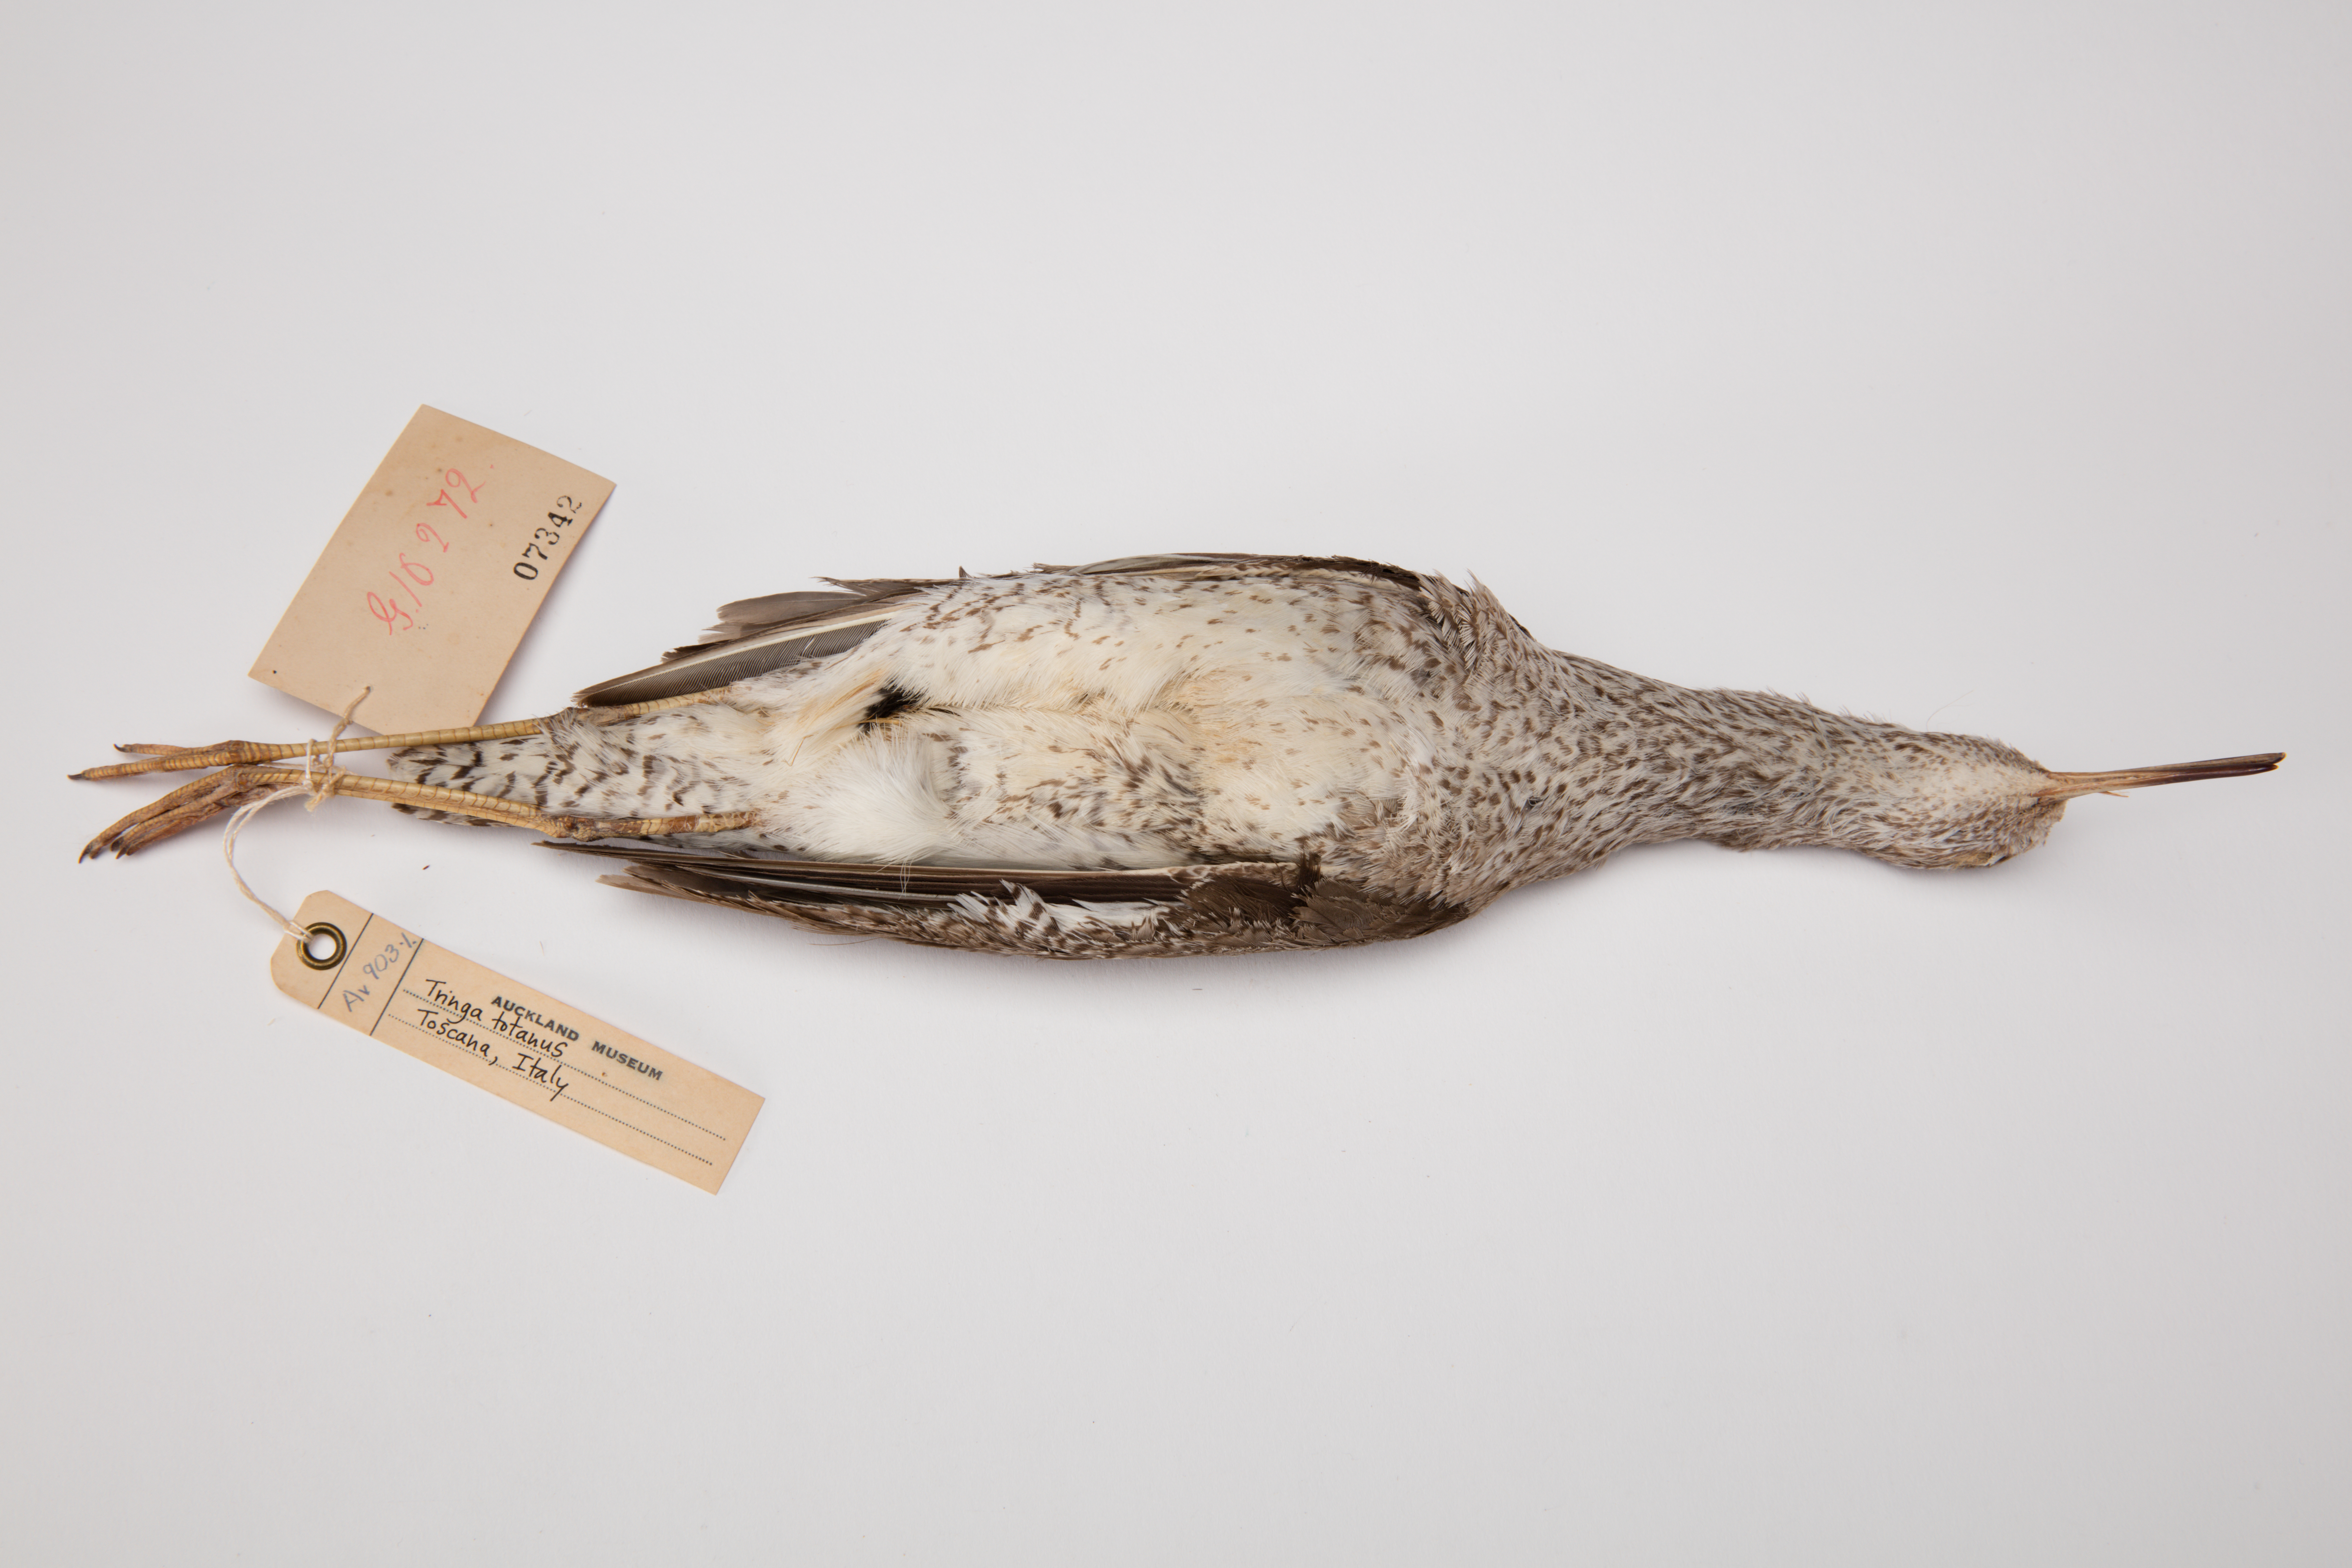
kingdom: Animalia
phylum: Chordata
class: Aves
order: Charadriiformes
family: Scolopacidae
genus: Tringa
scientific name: Tringa totanus
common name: Common redshank
